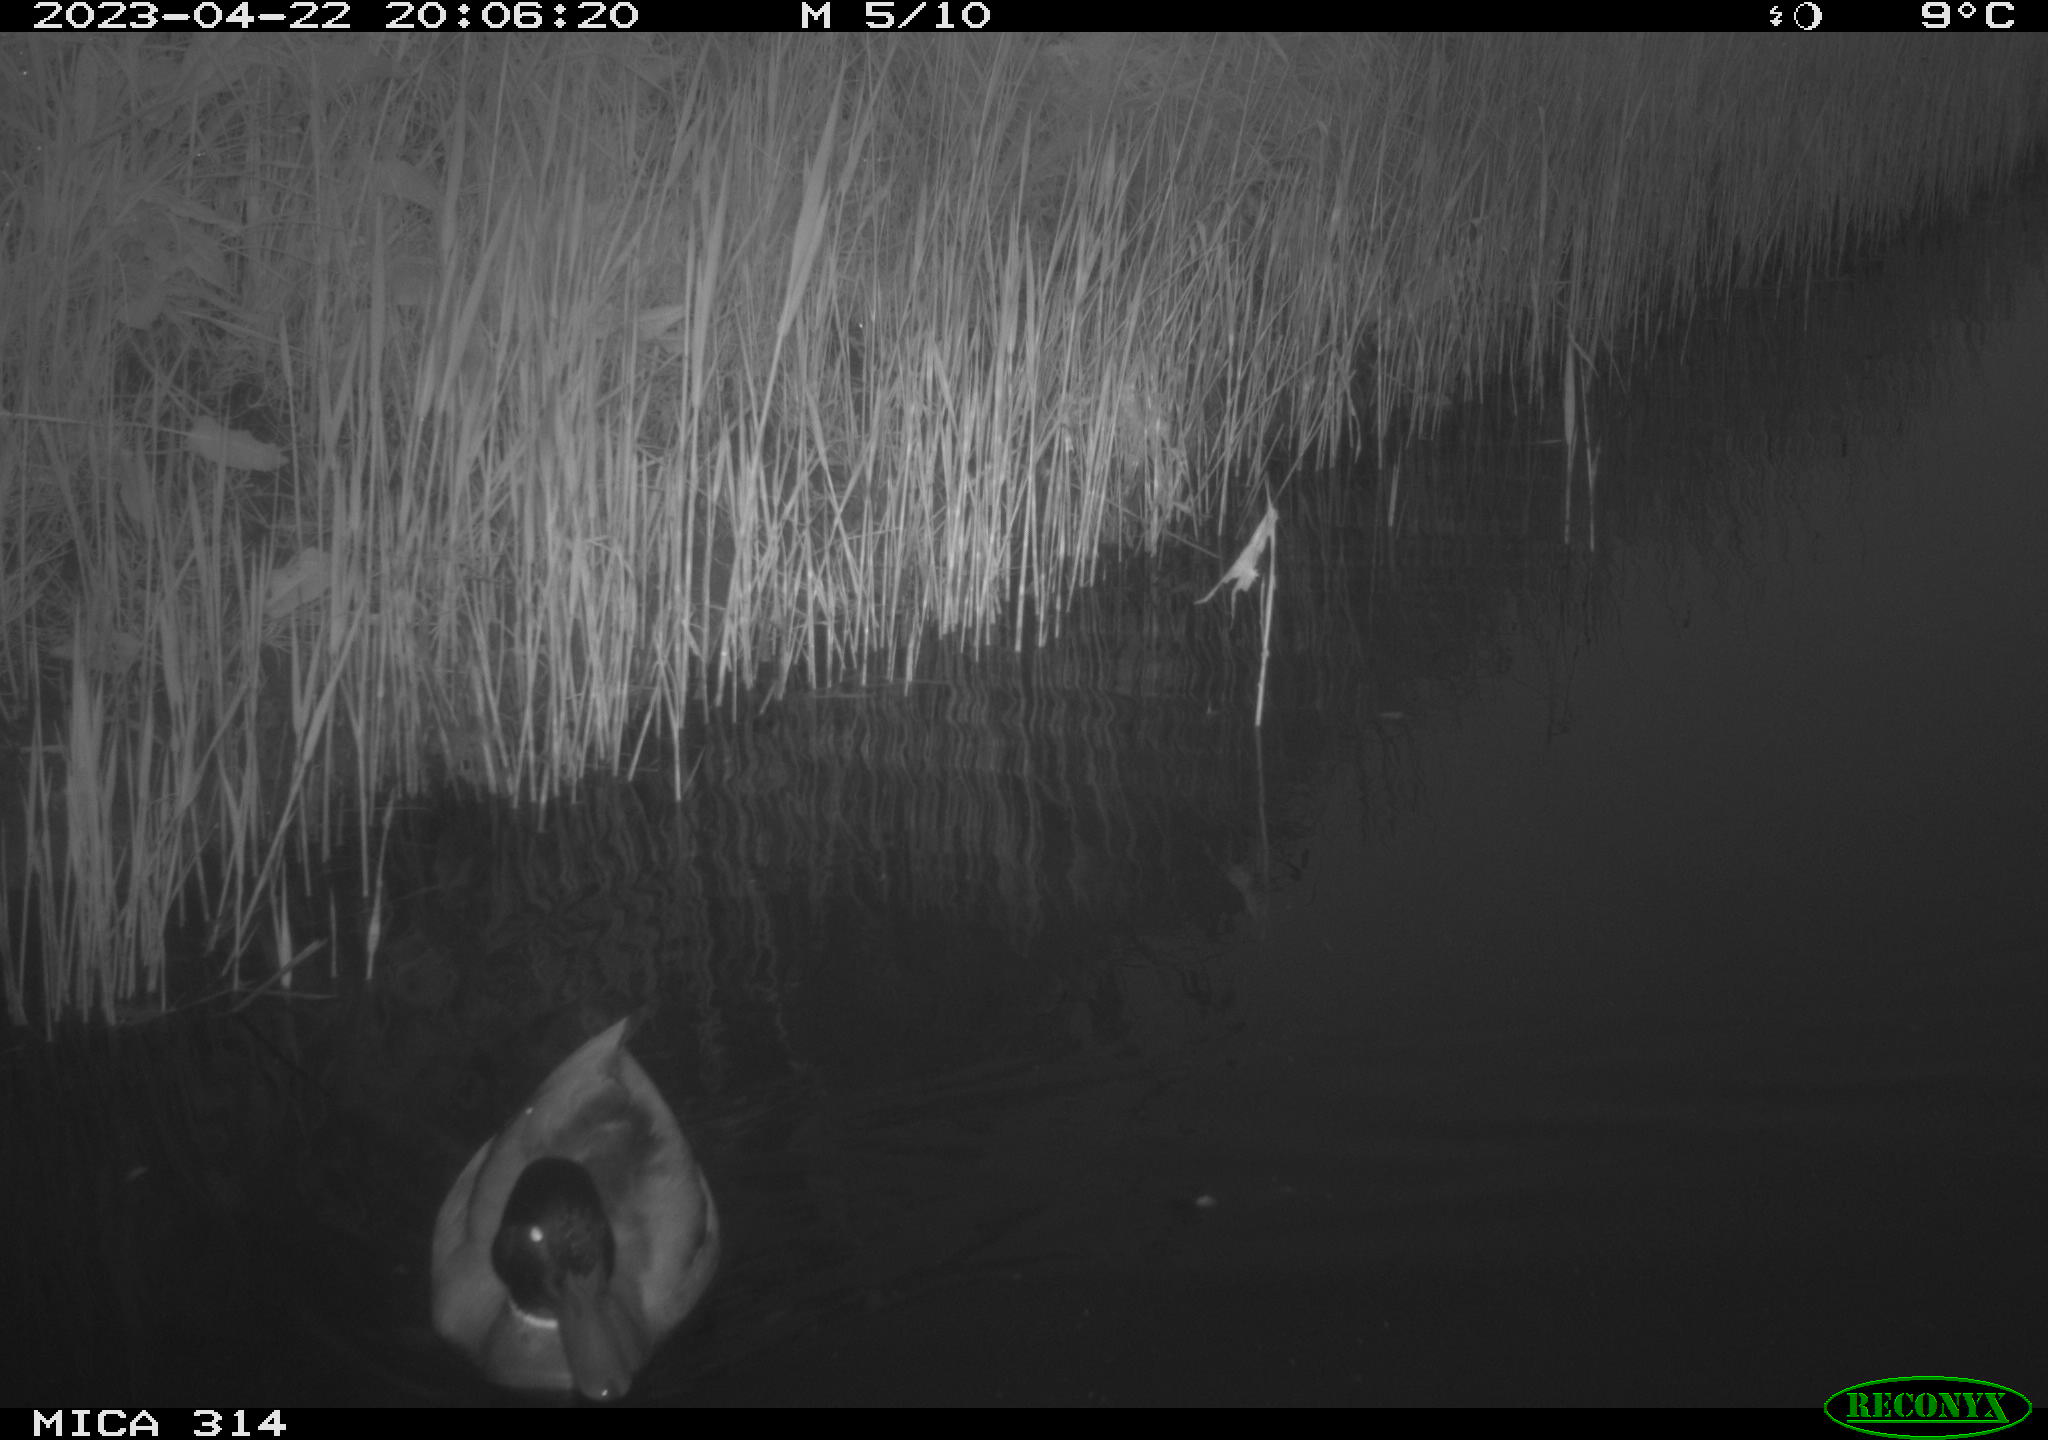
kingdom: Animalia
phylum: Chordata
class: Aves
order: Anseriformes
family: Anatidae
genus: Anas
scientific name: Anas
